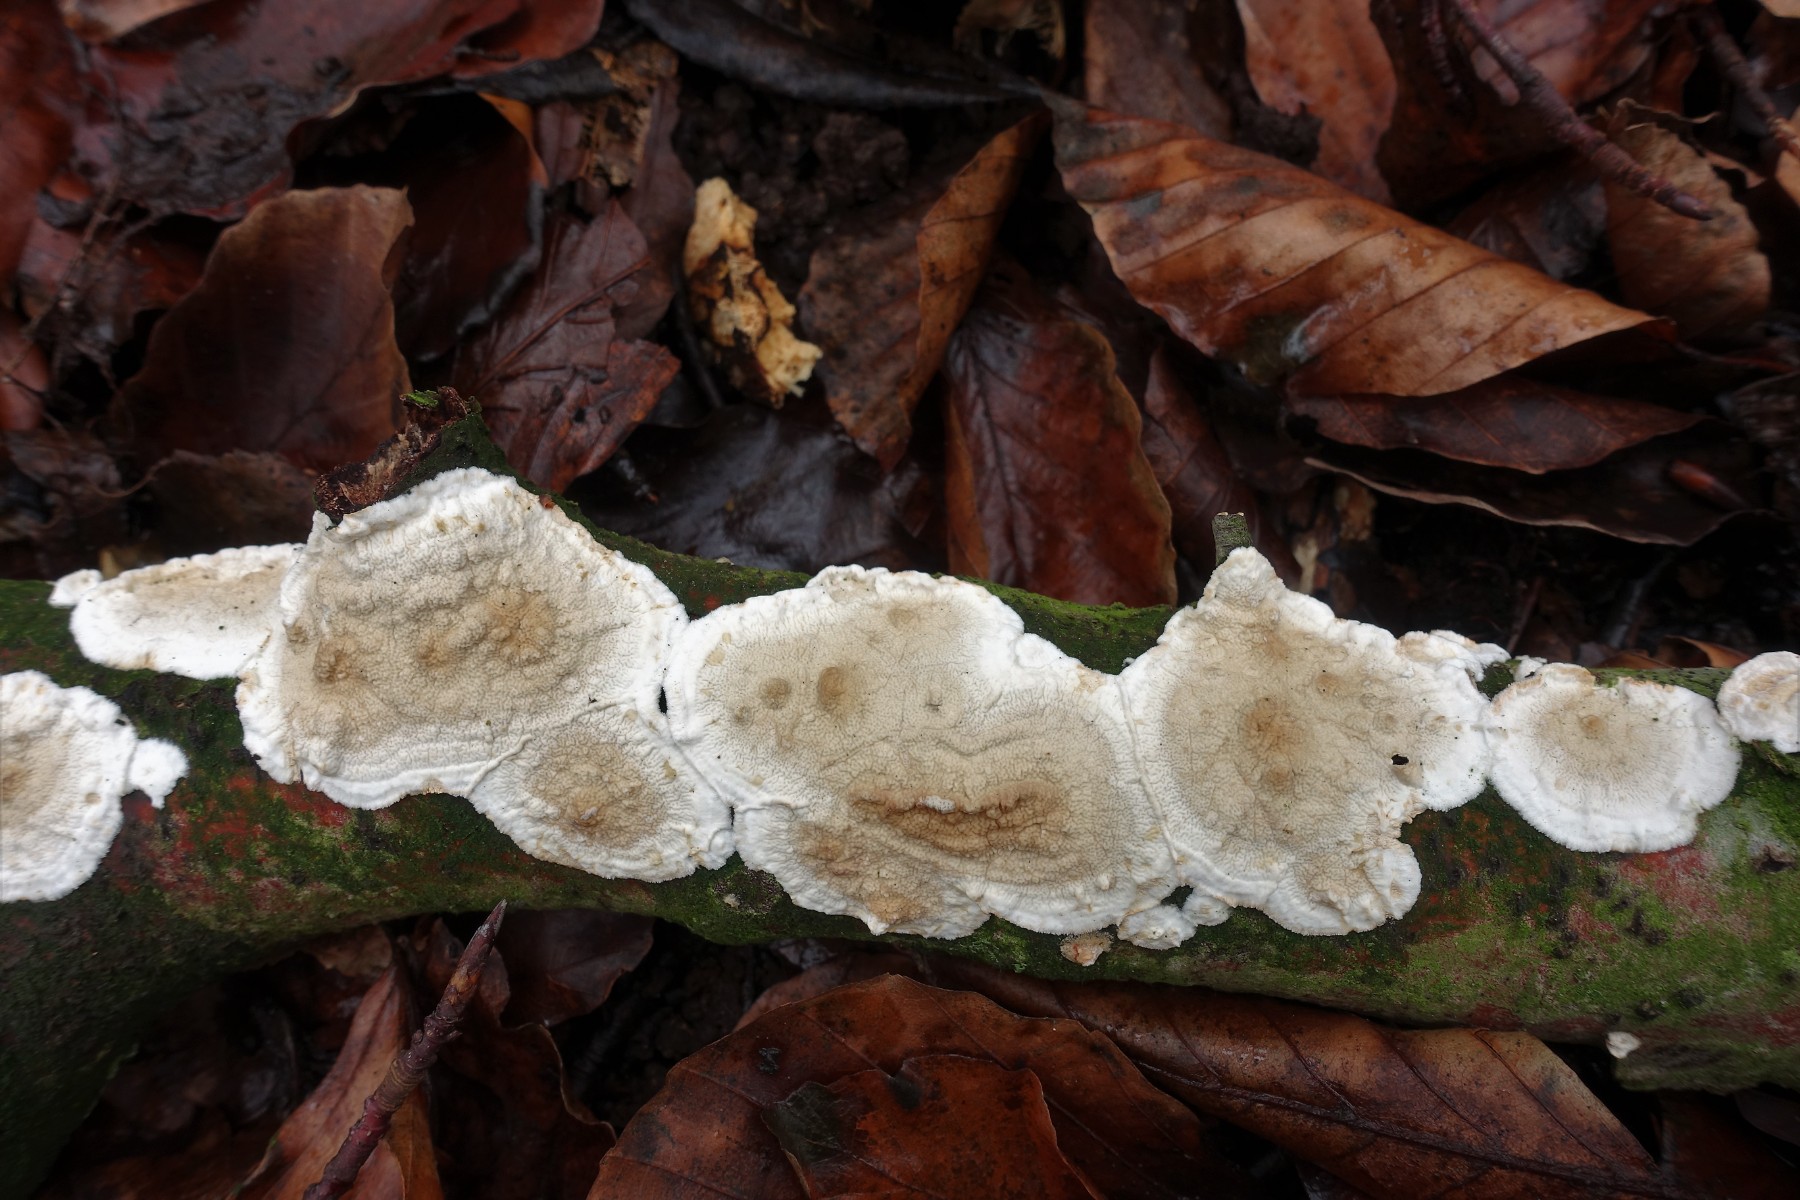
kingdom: Fungi
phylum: Basidiomycota
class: Agaricomycetes
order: Agaricales
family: Physalacriaceae
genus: Cylindrobasidium
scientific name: Cylindrobasidium evolvens
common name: sprækkehinde
